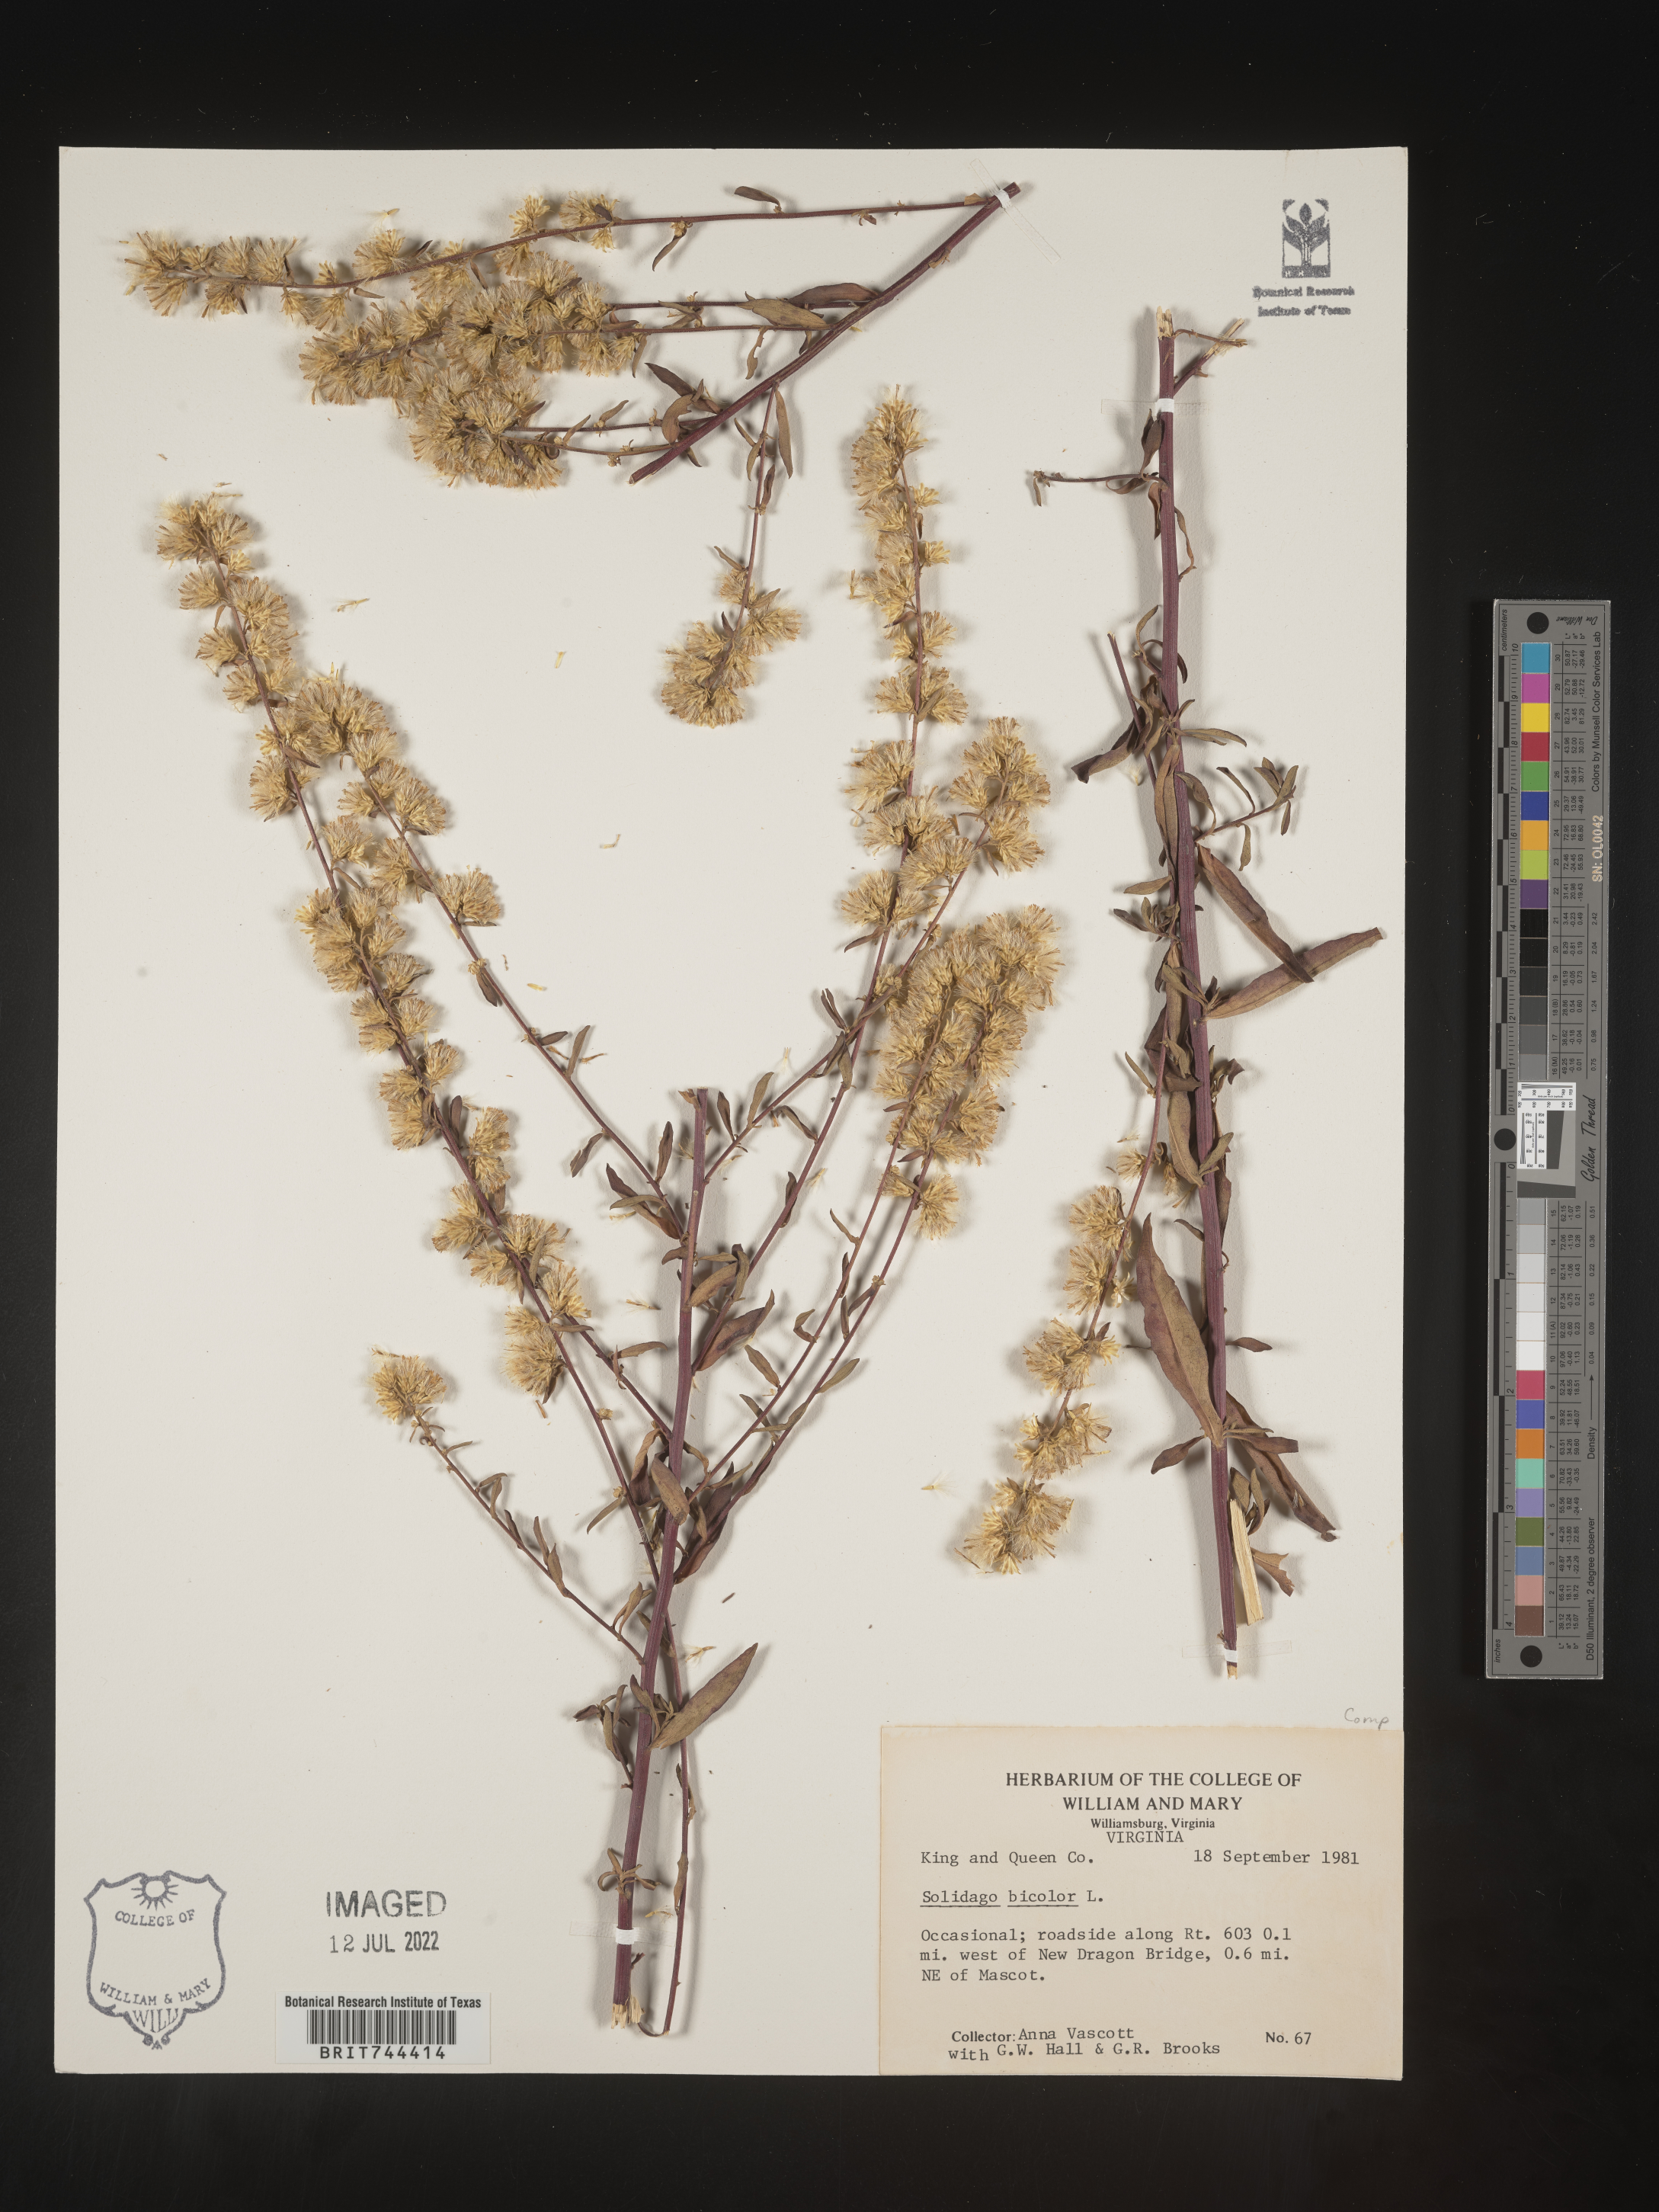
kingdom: Plantae
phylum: Tracheophyta
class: Magnoliopsida
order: Asterales
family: Asteraceae
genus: Solidago
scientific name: Solidago bicolor
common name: Silverrod
